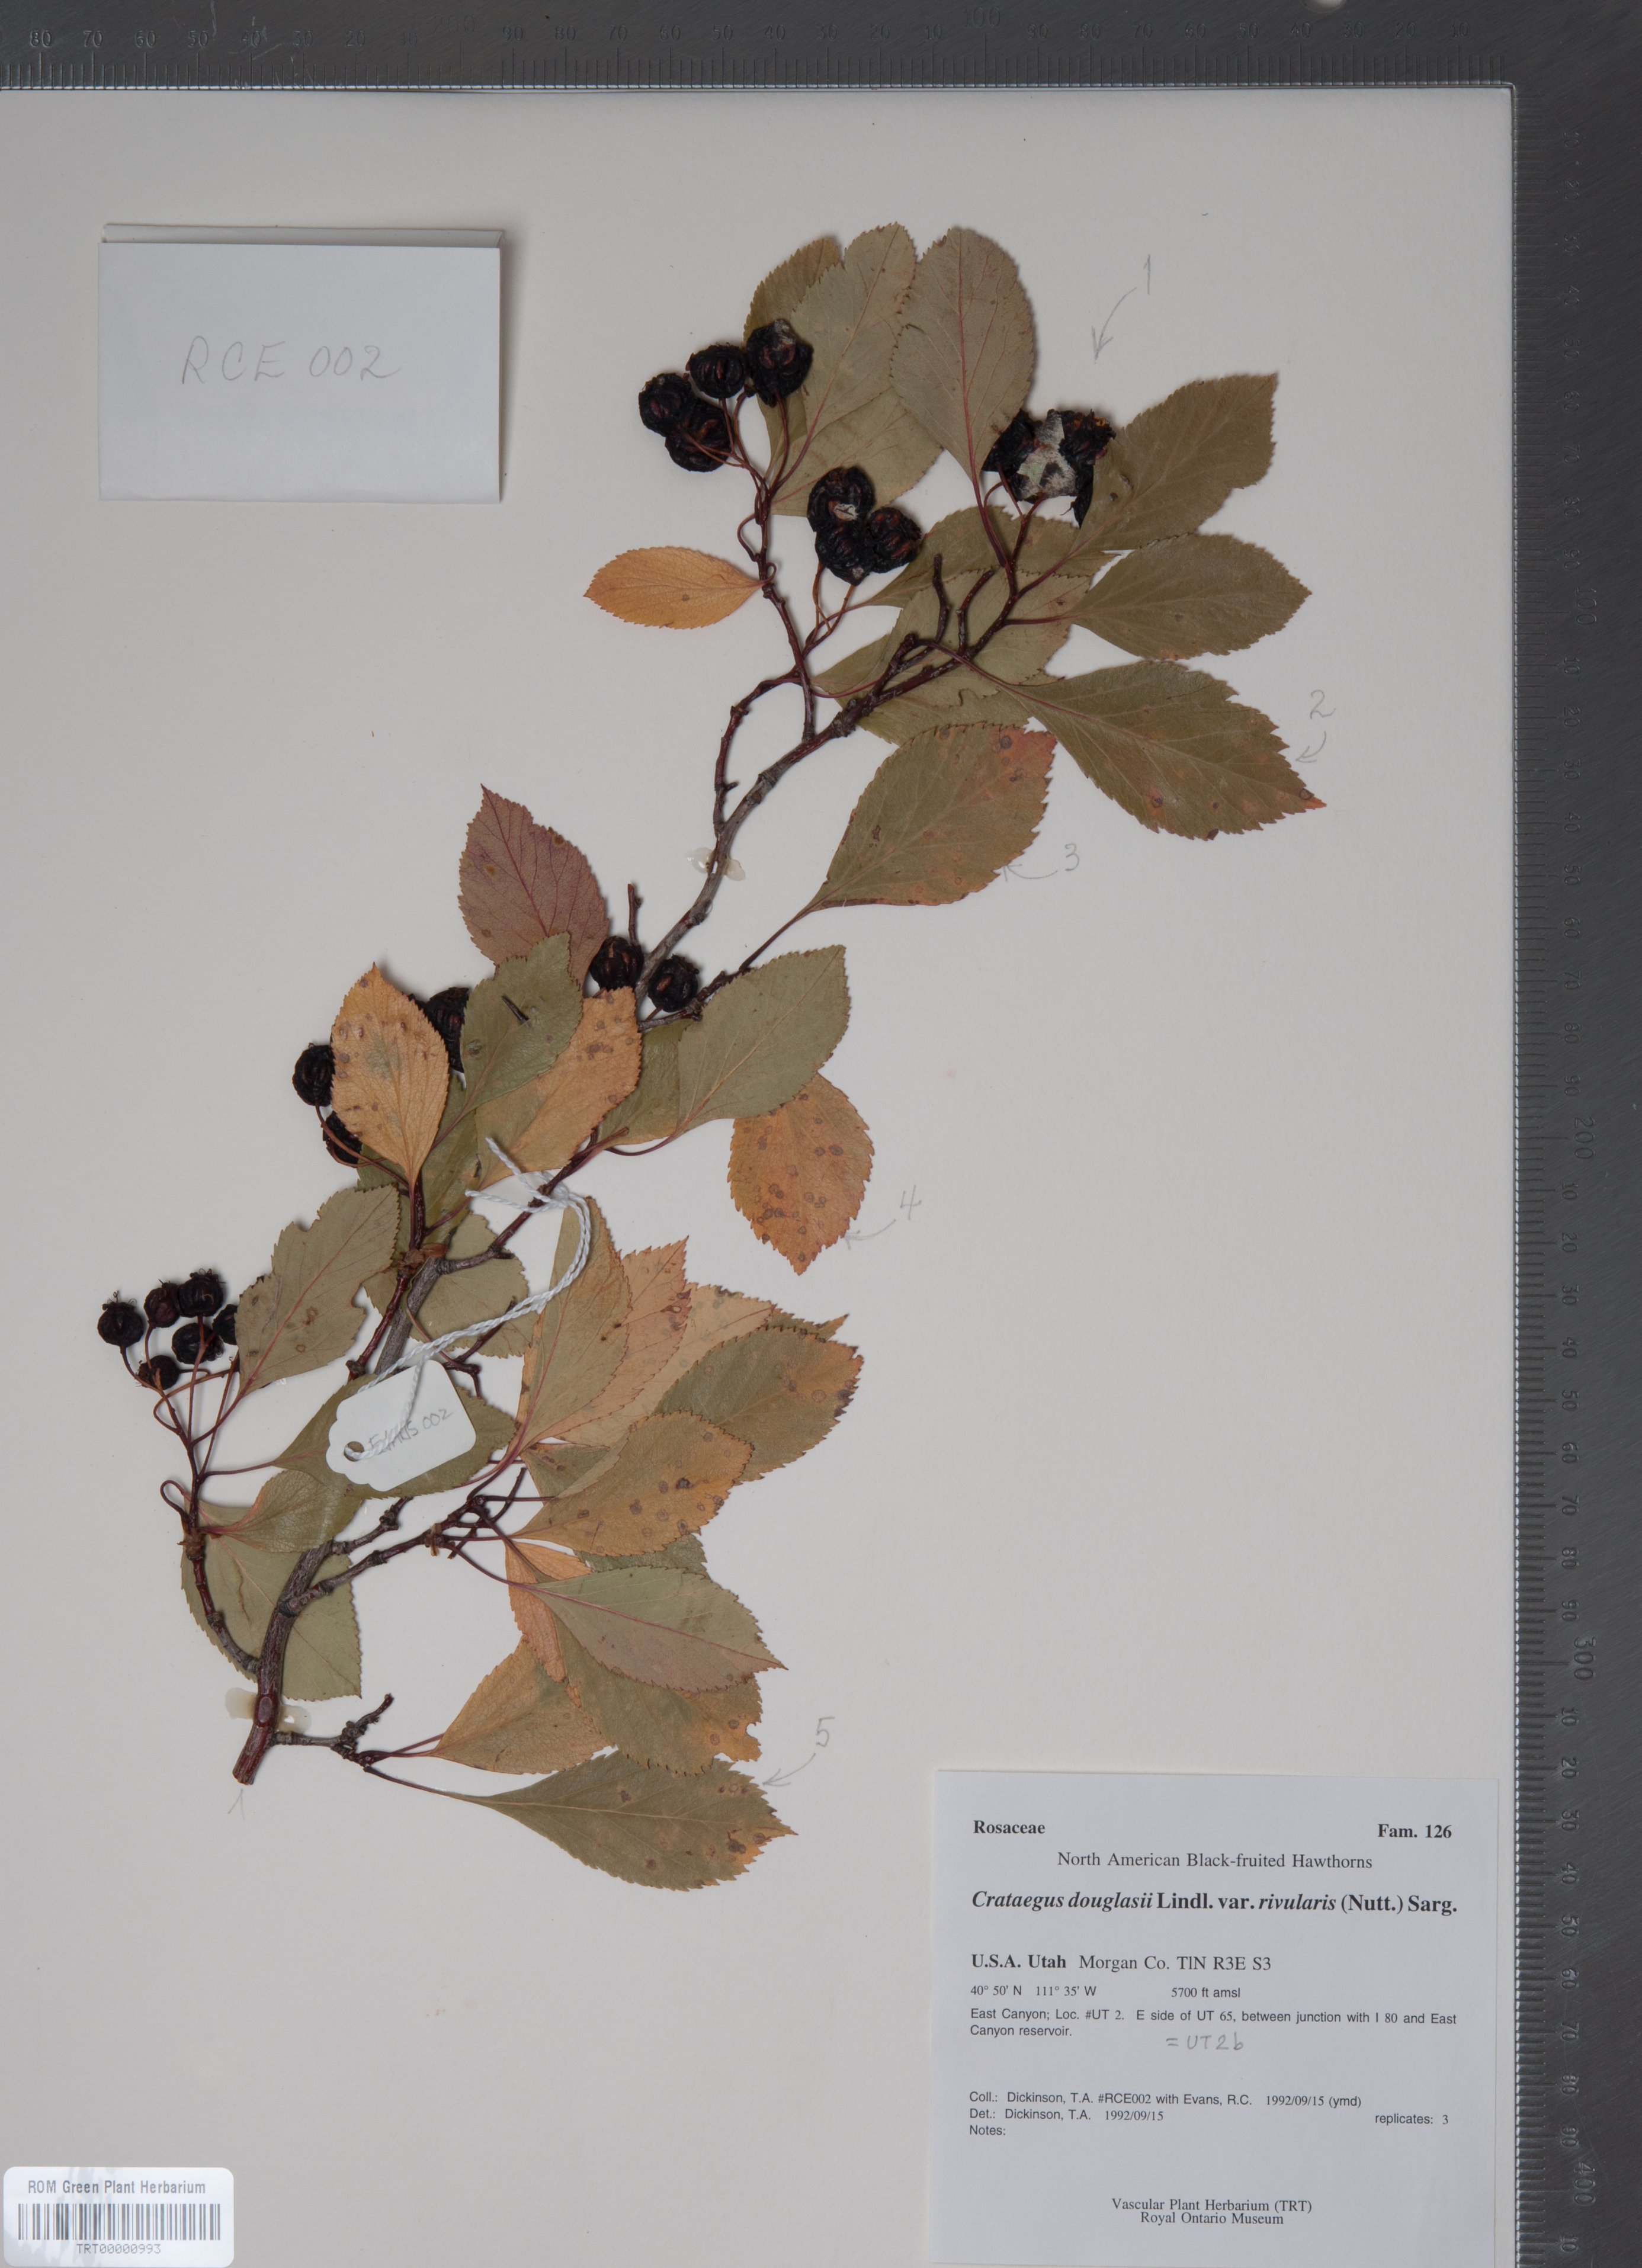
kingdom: Plantae
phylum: Tracheophyta
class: Magnoliopsida
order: Rosales
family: Rosaceae
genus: Crataegus
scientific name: Crataegus rivularis
